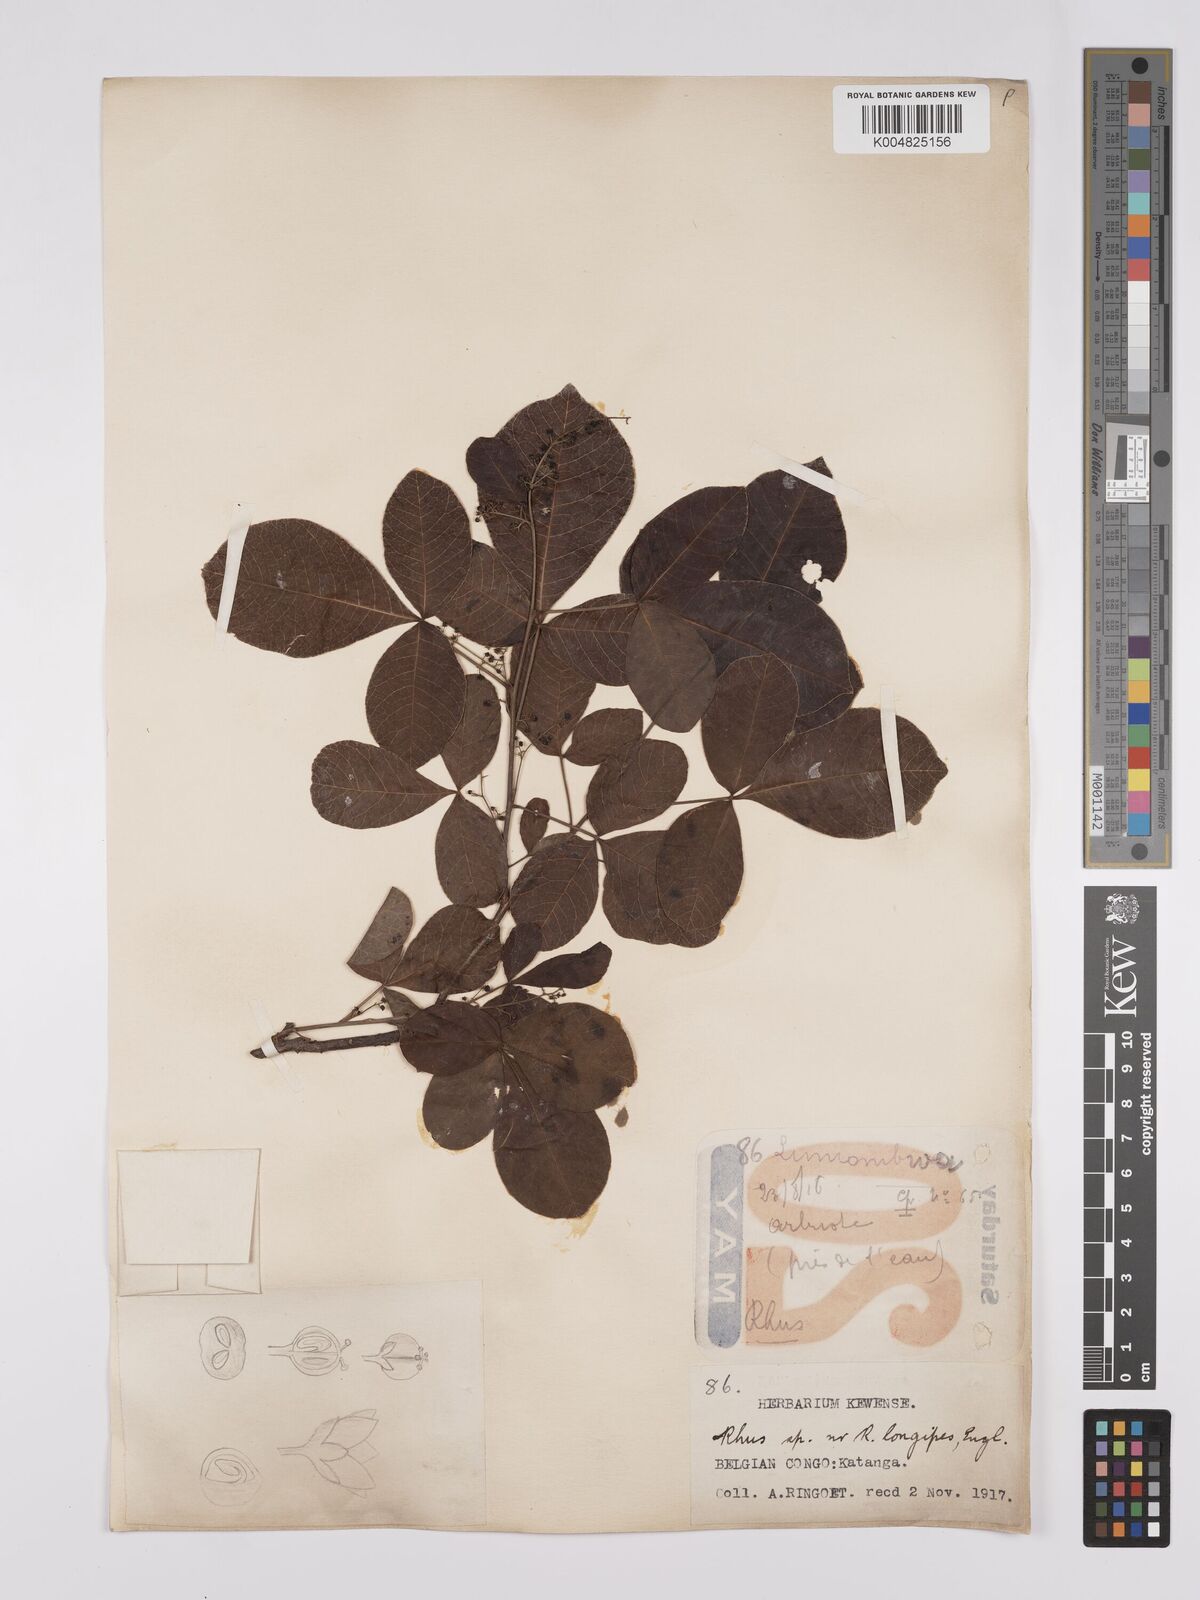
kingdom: Plantae
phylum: Tracheophyta
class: Magnoliopsida
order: Sapindales
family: Anacardiaceae
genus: Searsia
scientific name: Searsia longipes
